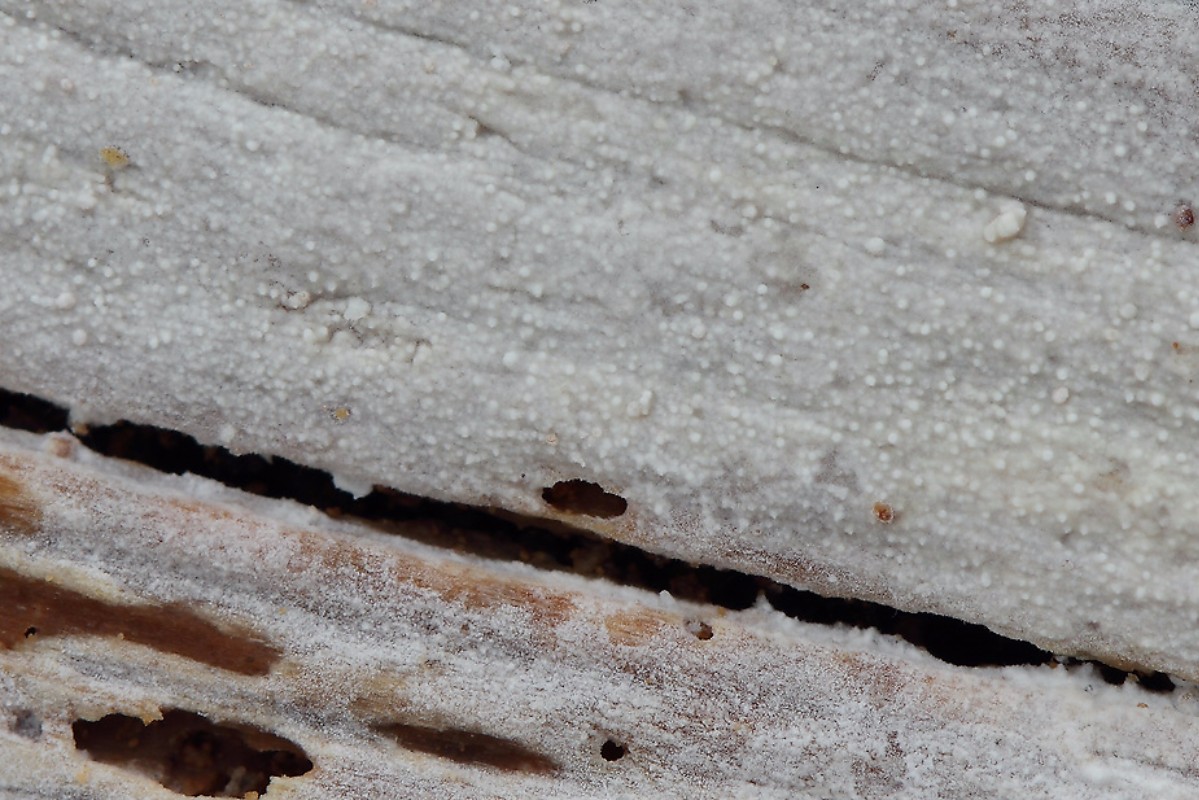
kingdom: Fungi
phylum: Basidiomycota
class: Agaricomycetes
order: Hymenochaetales
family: Rickenellaceae
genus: Resinicium
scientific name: Resinicium bicolor
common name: almindelig vokstand
